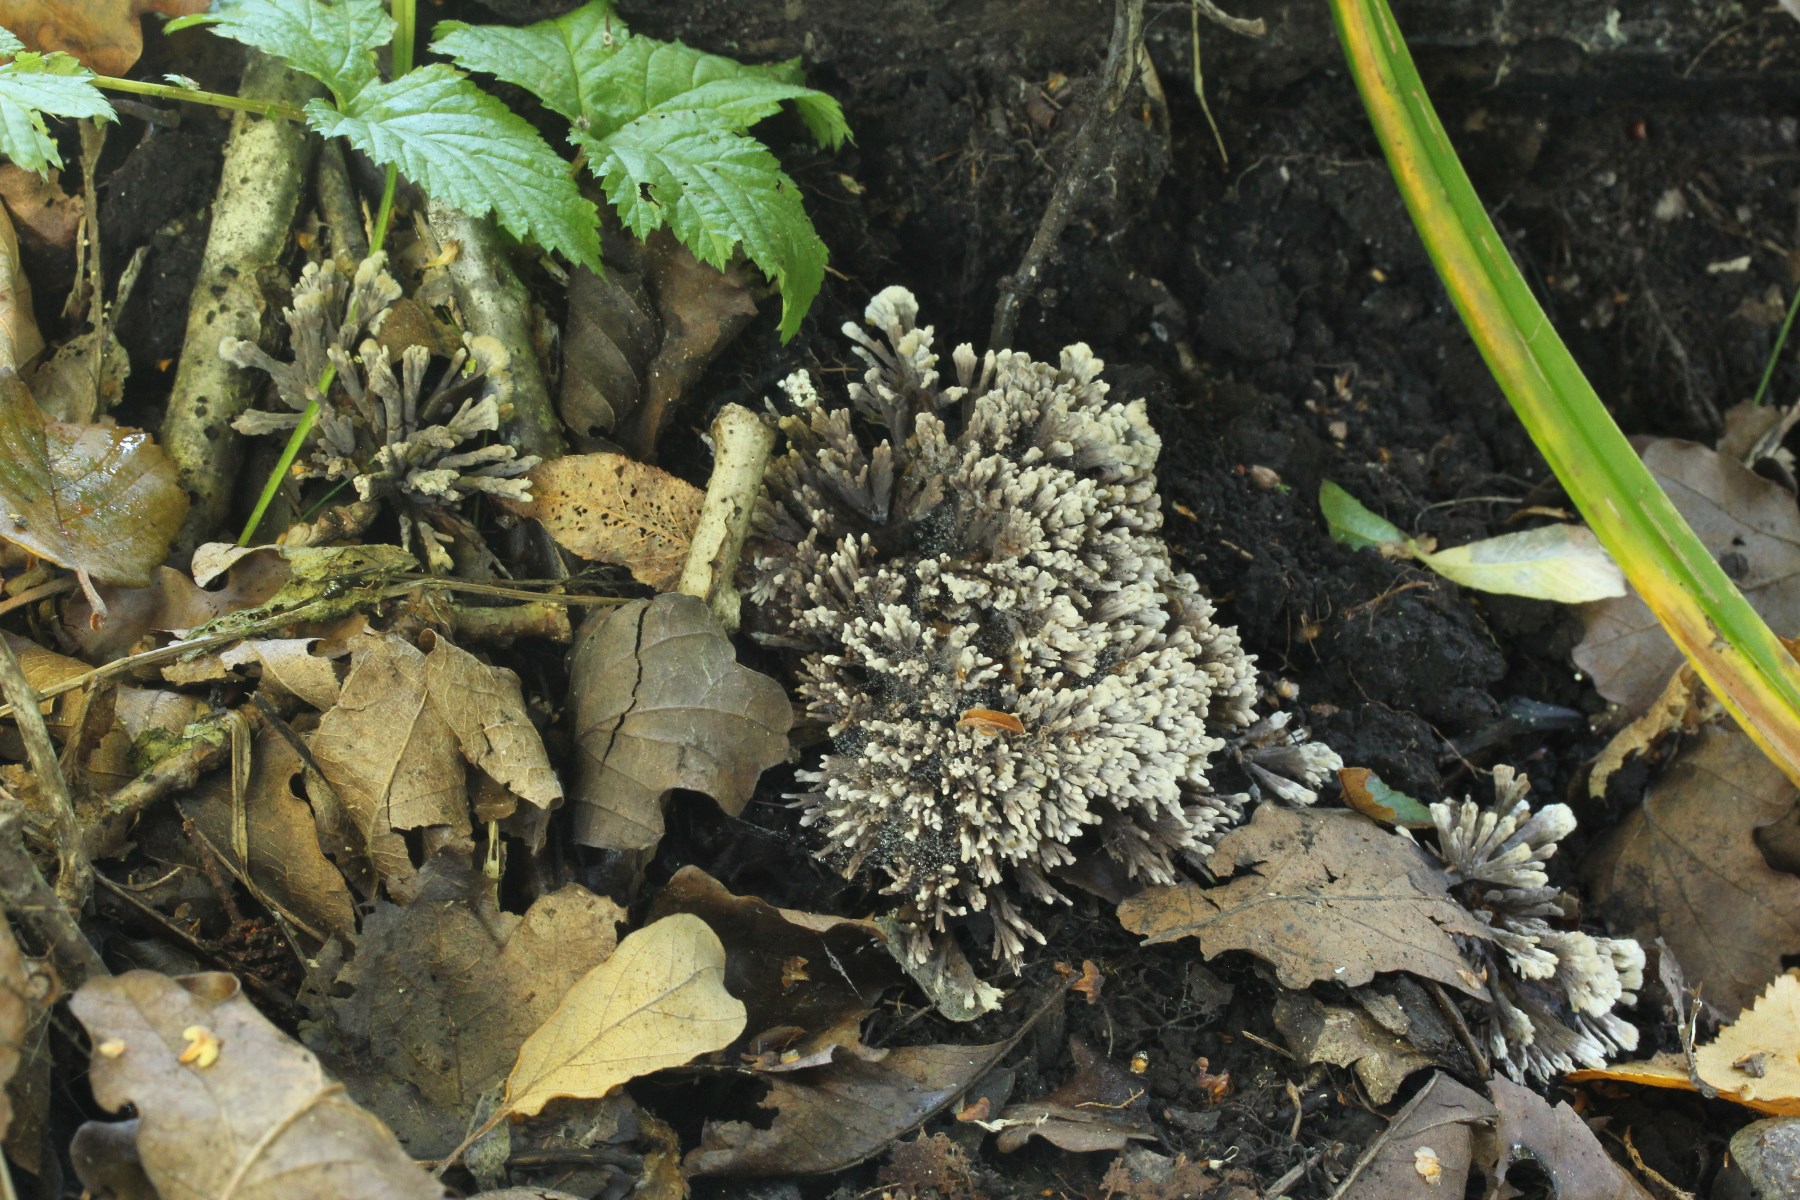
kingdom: Fungi
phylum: Basidiomycota
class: Agaricomycetes
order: Thelephorales
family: Thelephoraceae
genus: Thelephora
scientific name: Thelephora anthocephala
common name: busk-frynsesvamp
